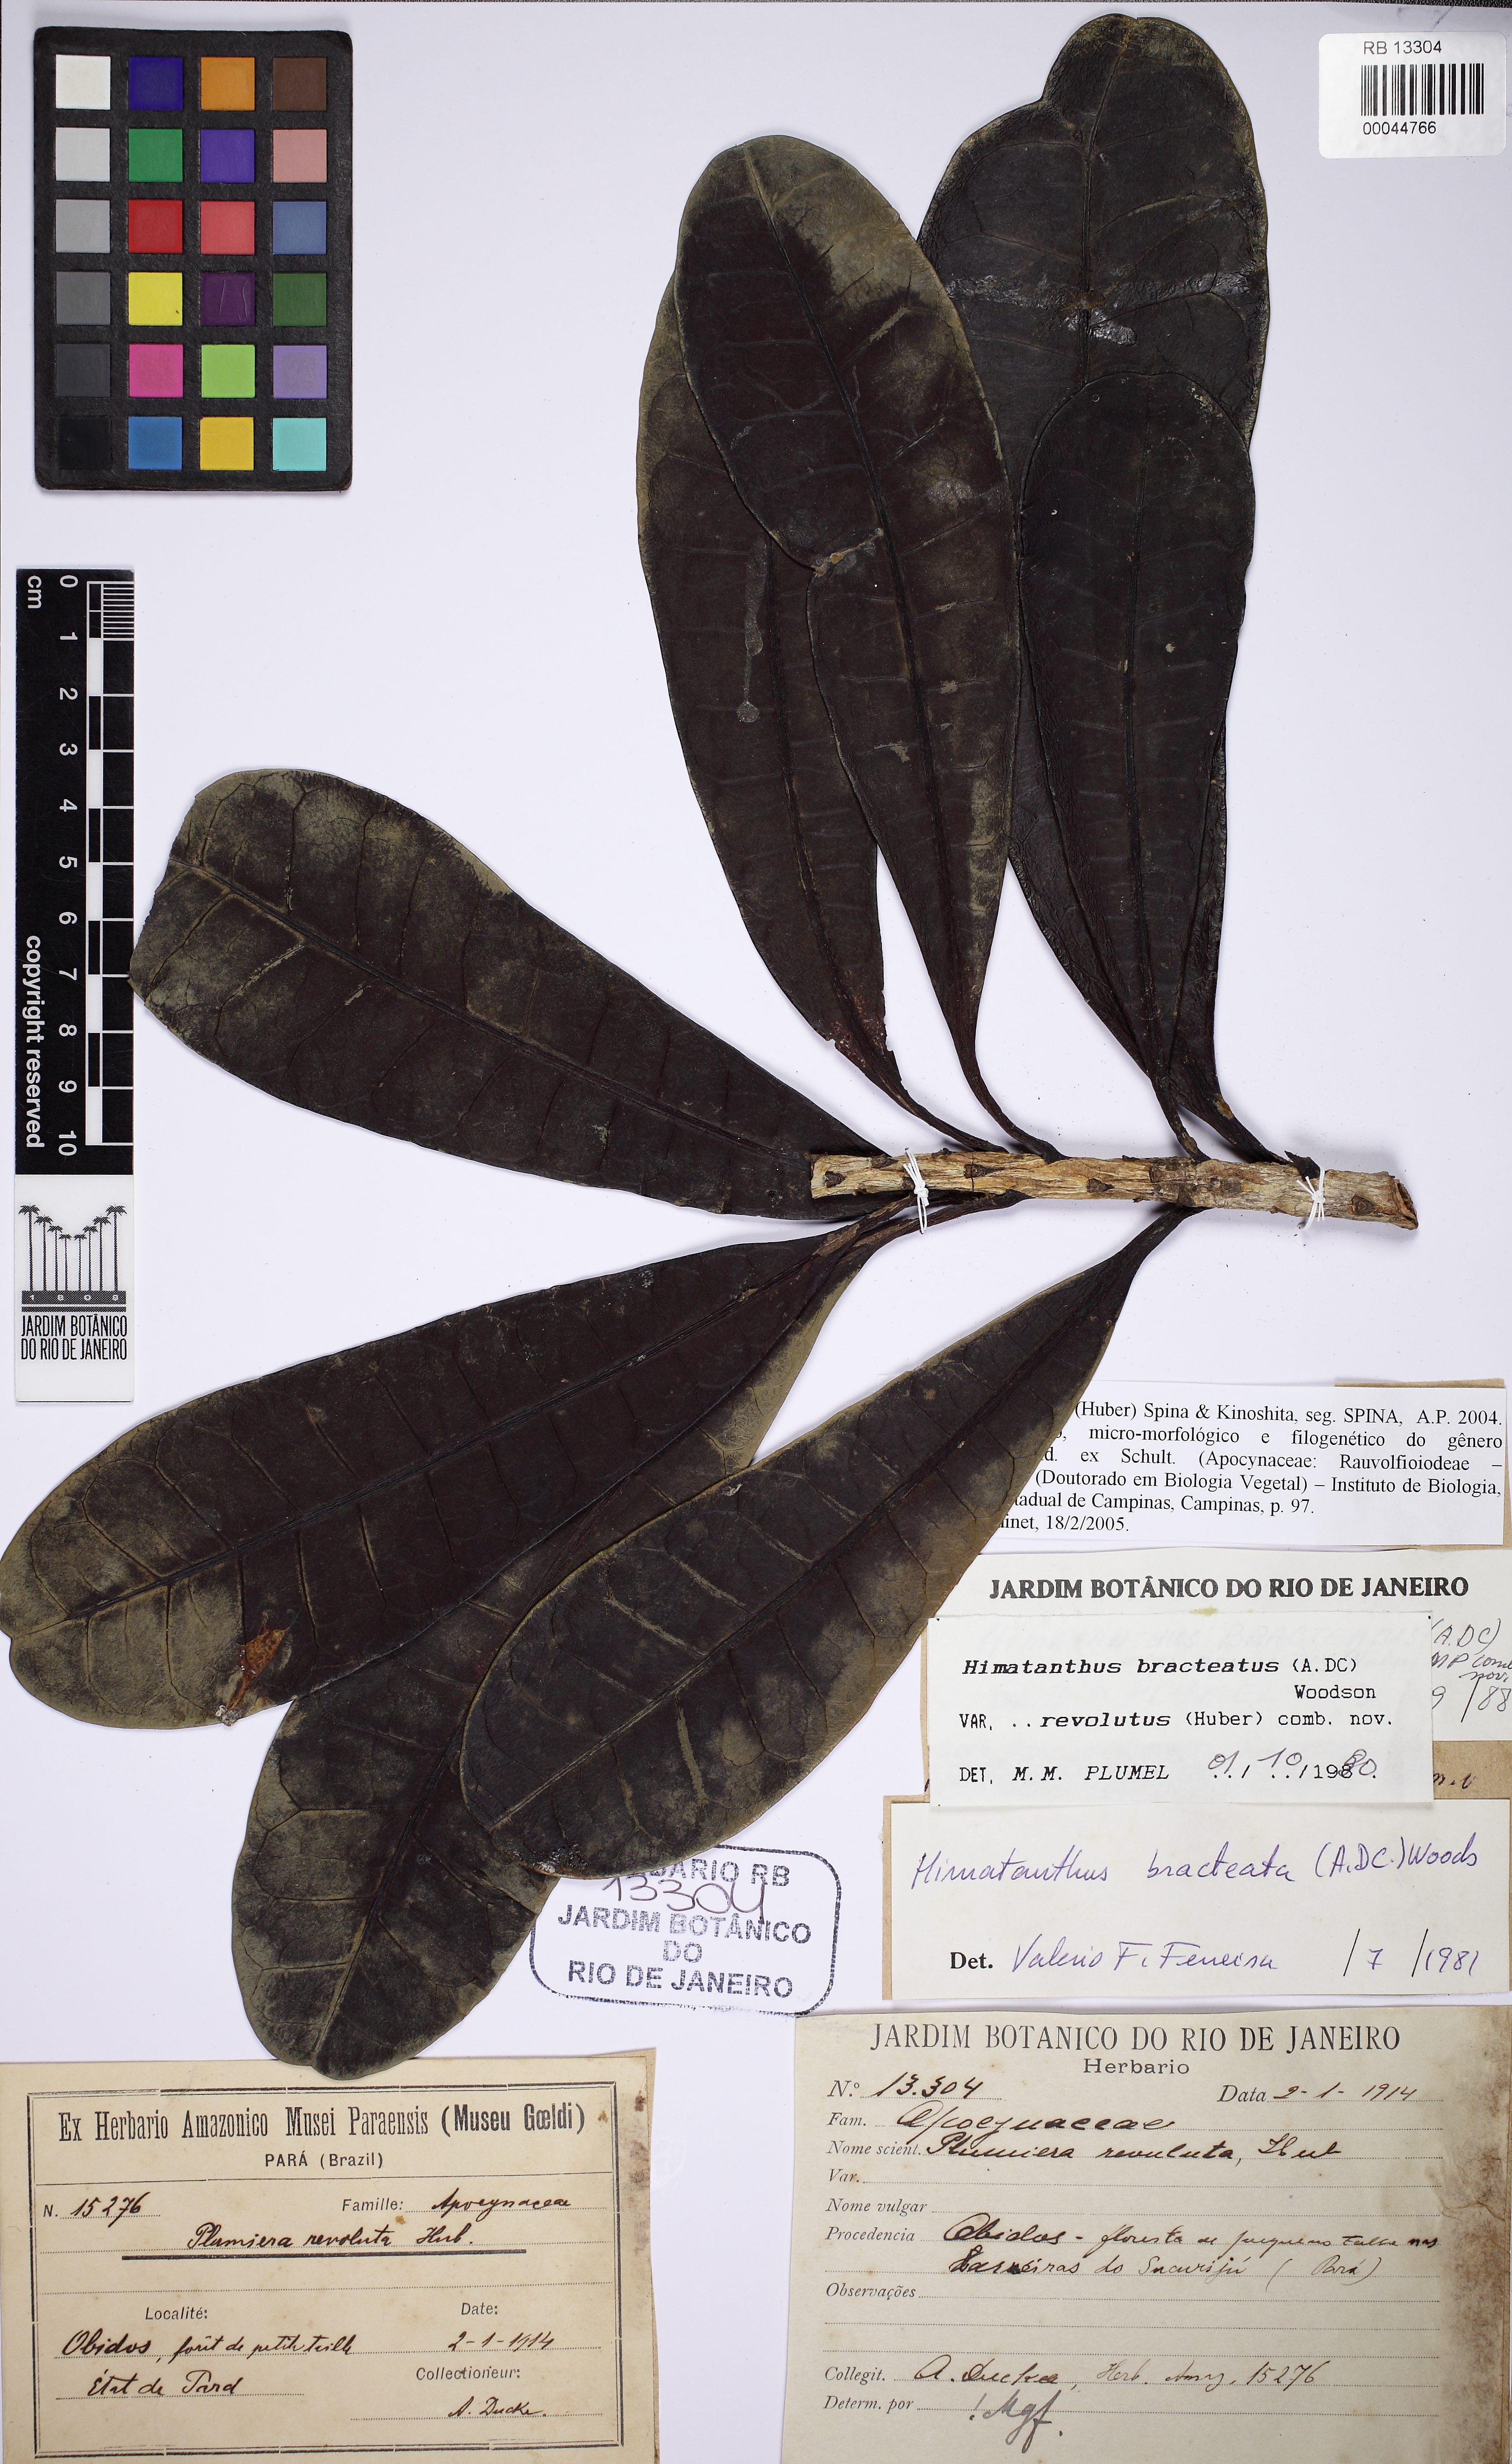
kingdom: Plantae
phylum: Tracheophyta
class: Magnoliopsida
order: Gentianales
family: Apocynaceae
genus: Himatanthus
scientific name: Himatanthus revolutus
